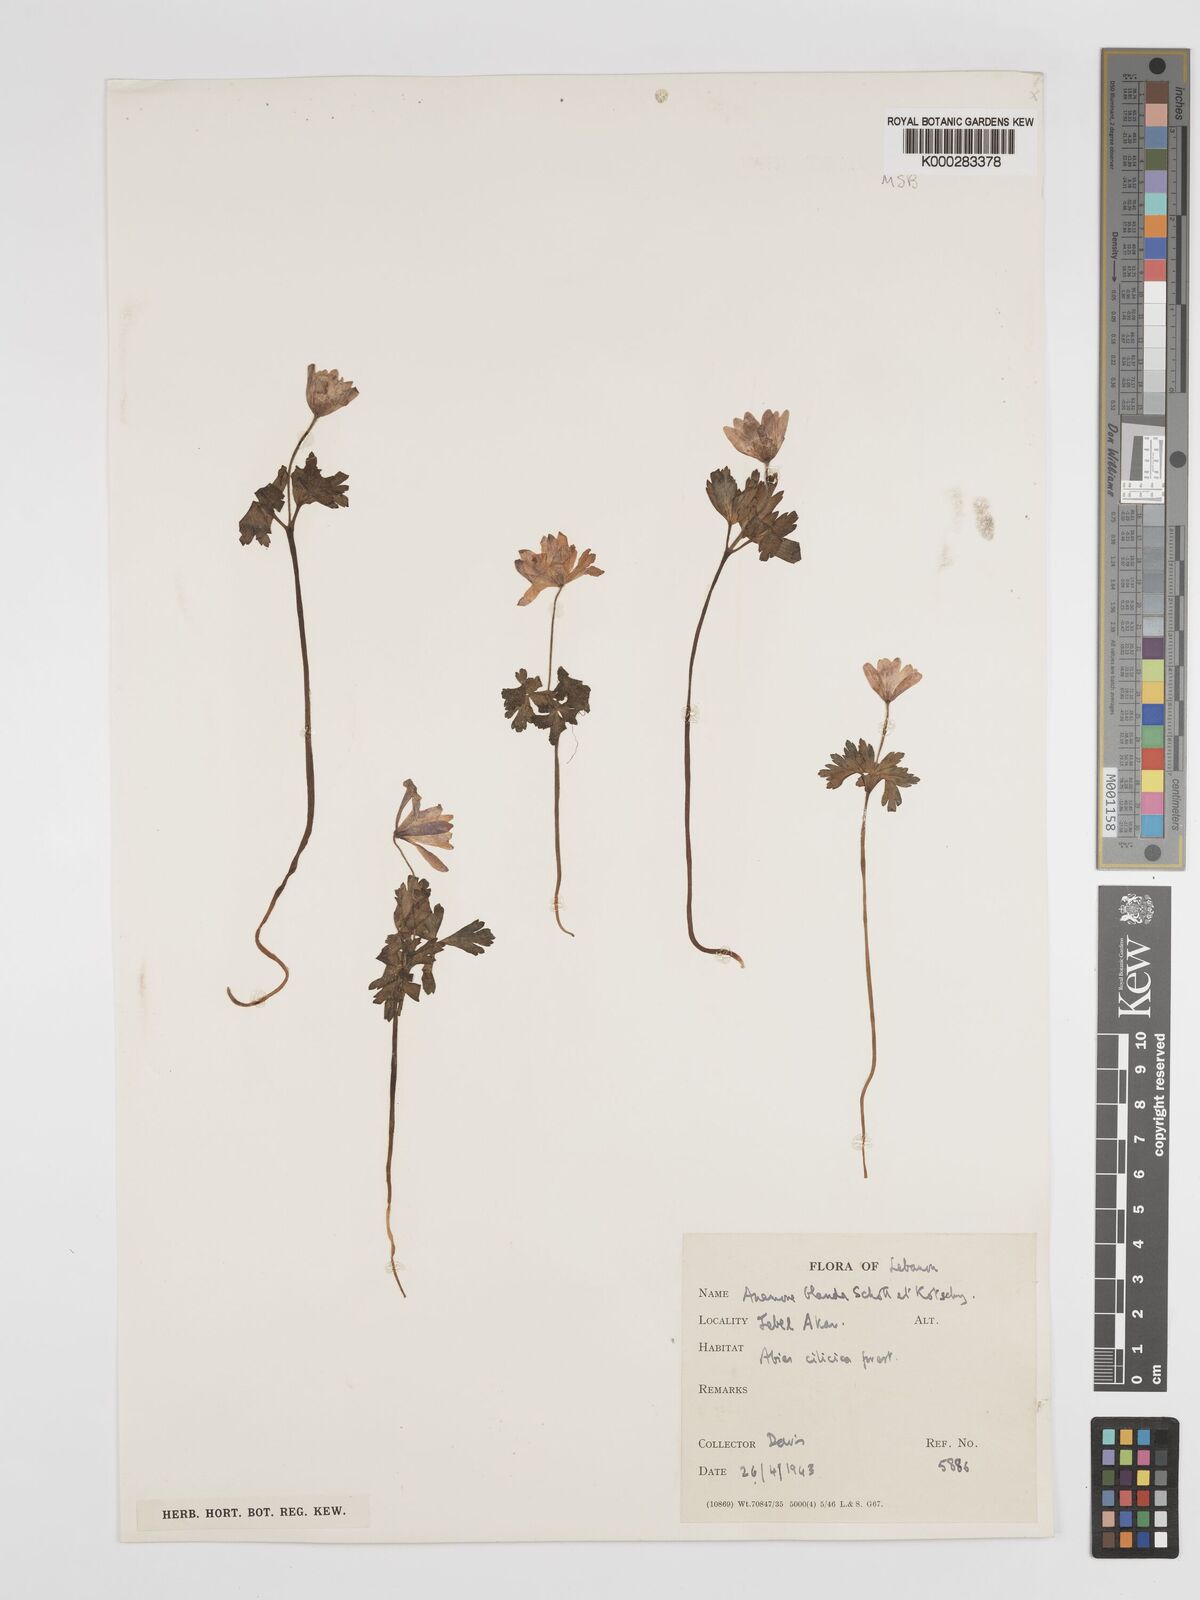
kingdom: Plantae
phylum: Tracheophyta
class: Magnoliopsida
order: Ranunculales
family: Ranunculaceae
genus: Anemone
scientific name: Anemone blanda
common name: Balkan anemone
